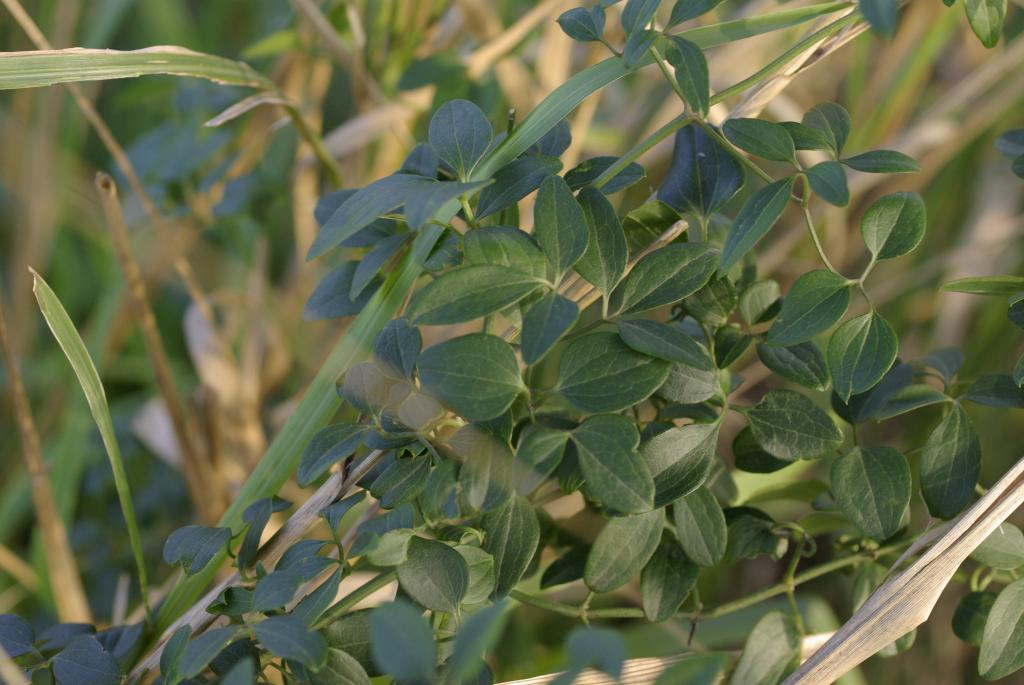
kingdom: Plantae
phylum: Tracheophyta
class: Magnoliopsida
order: Ranunculales
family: Ranunculaceae
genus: Clematis
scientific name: Clematis chinensis
